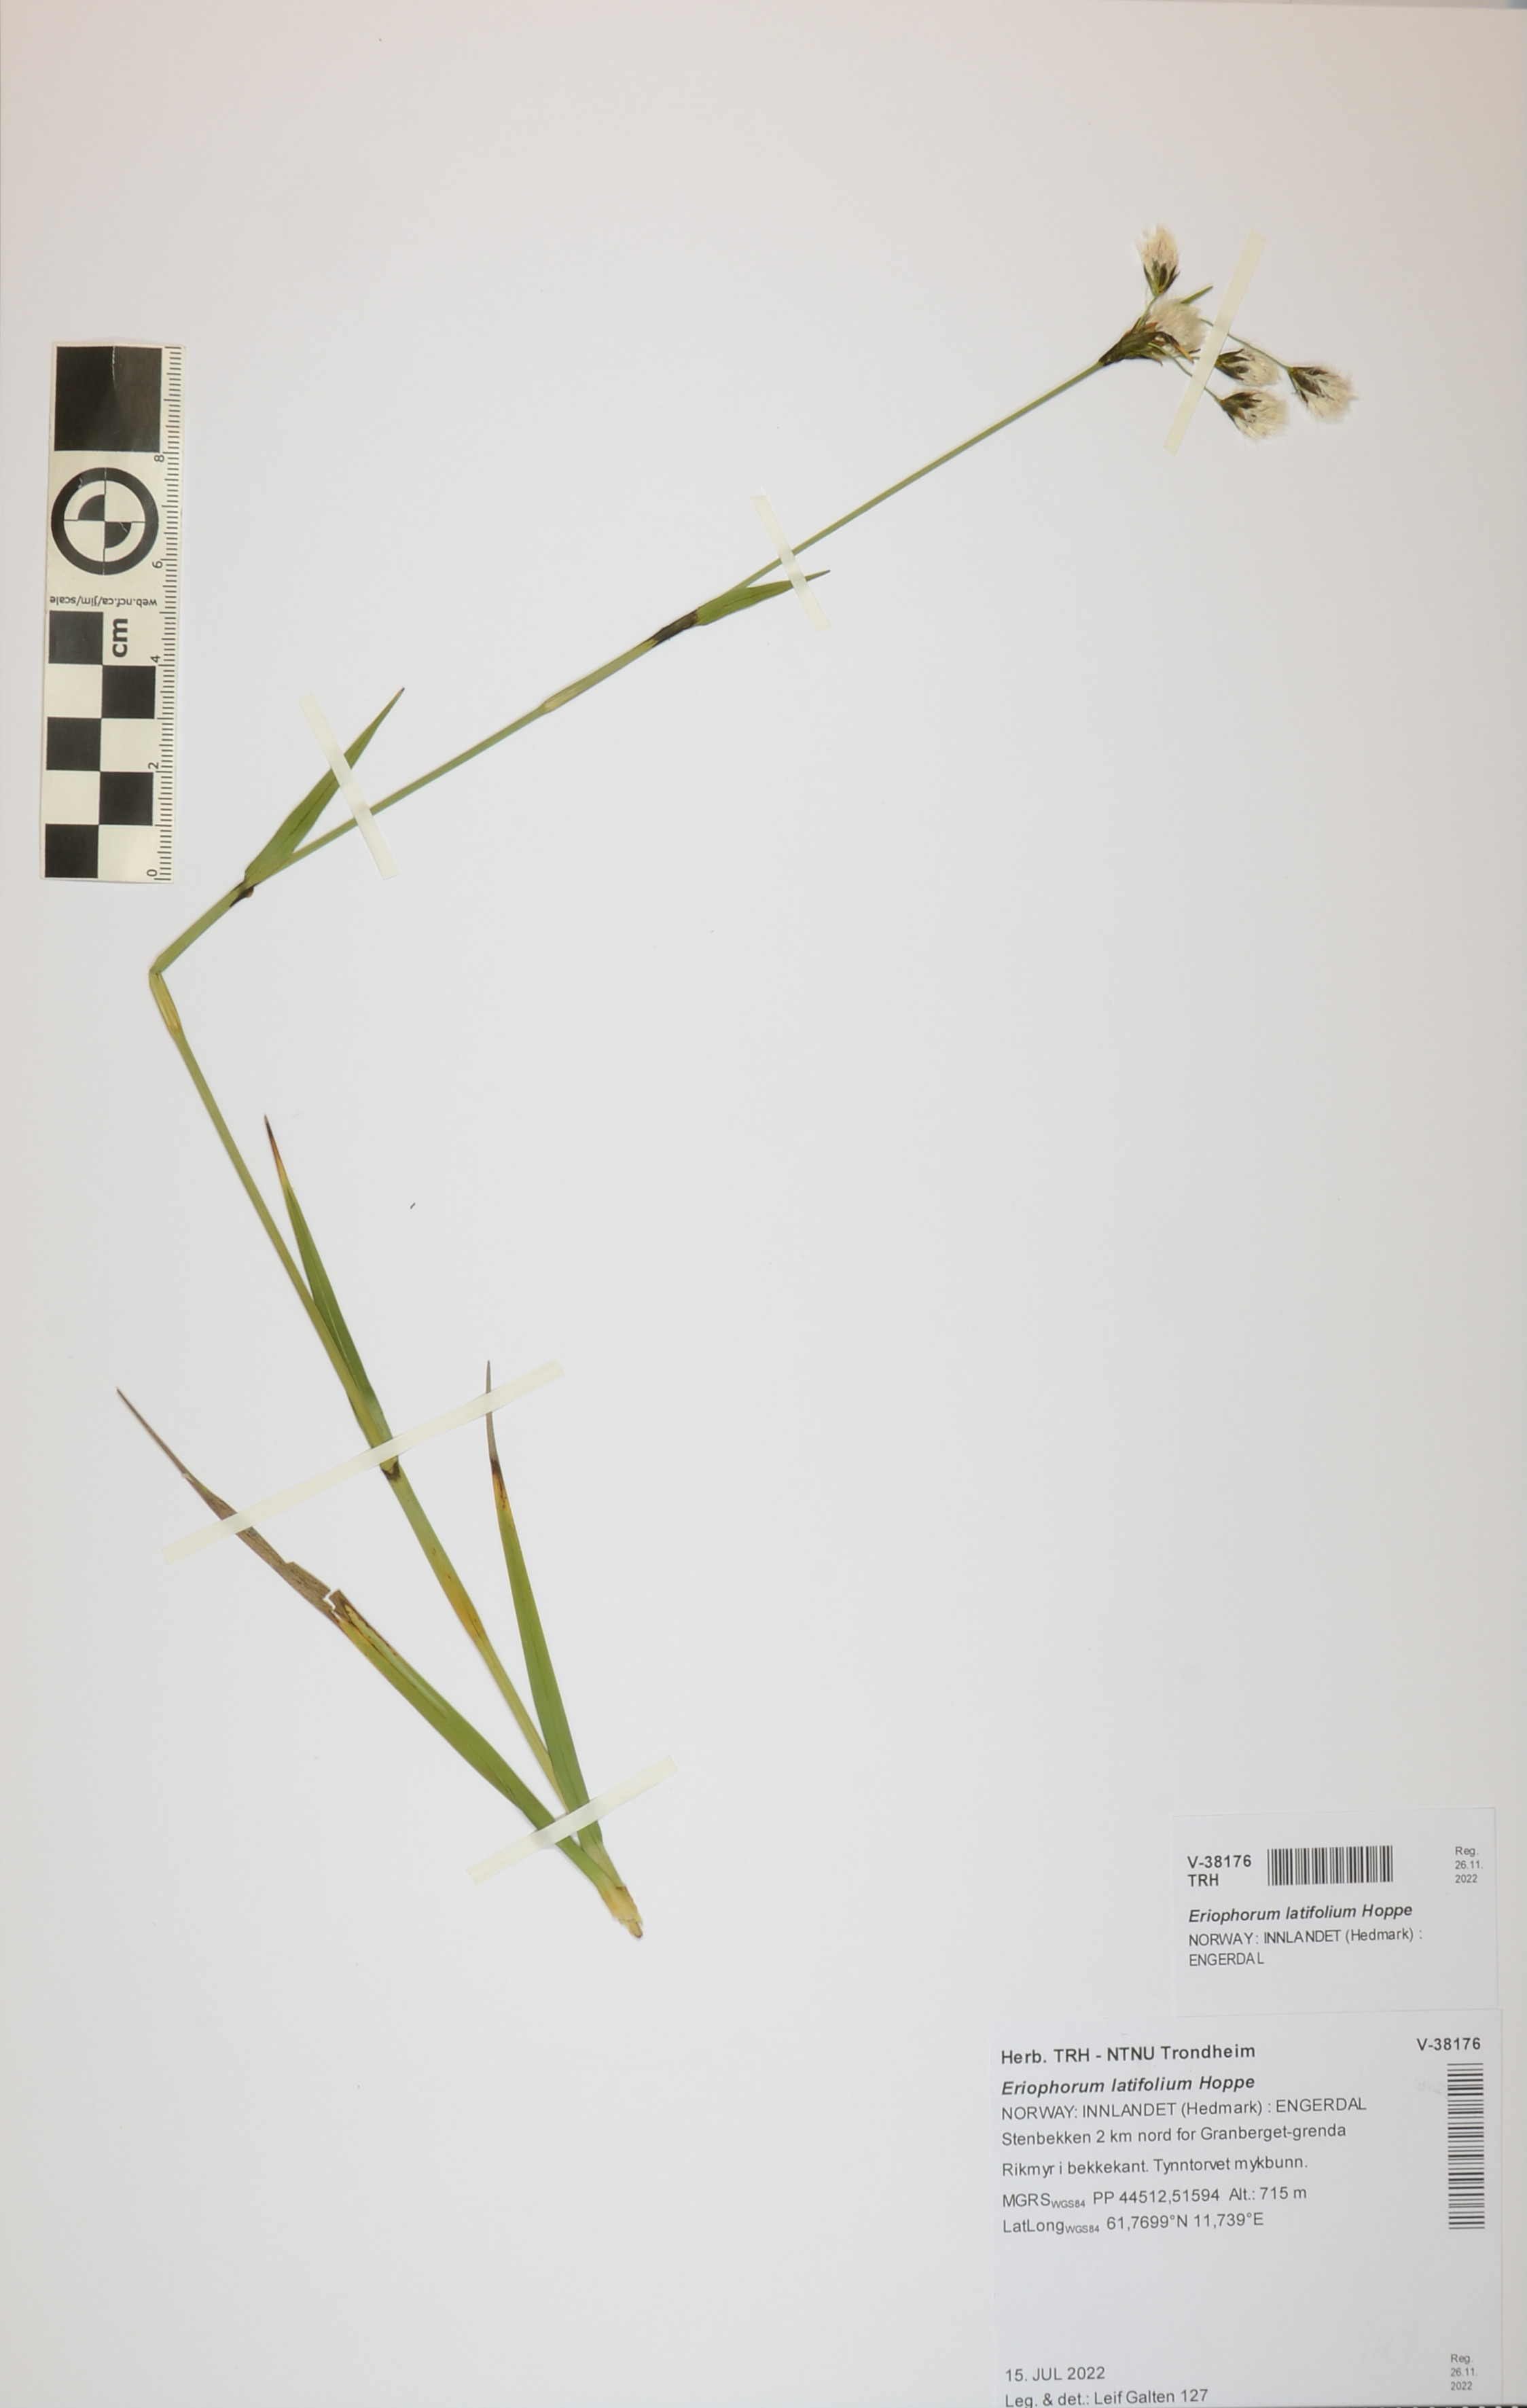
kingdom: Plantae
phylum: Tracheophyta
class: Liliopsida
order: Poales
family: Cyperaceae
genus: Eriophorum
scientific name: Eriophorum latifolium
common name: Broad-leaved cottongrass
